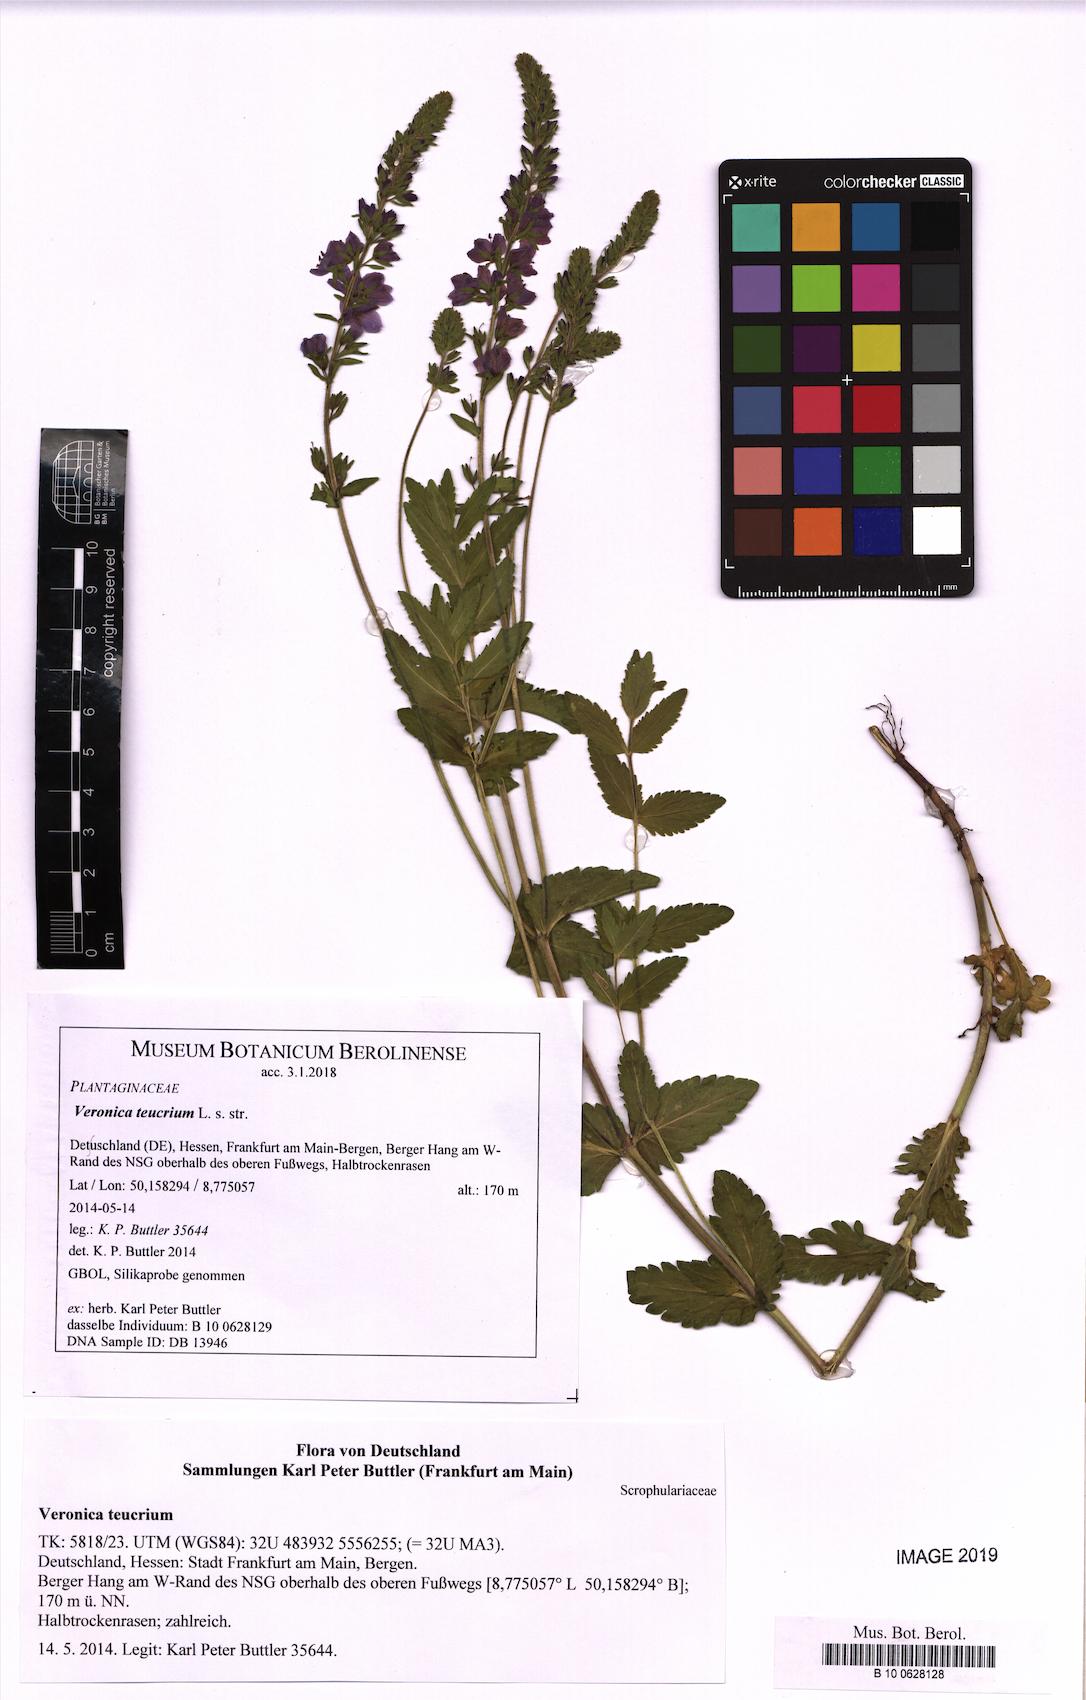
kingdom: Plantae
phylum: Tracheophyta
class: Magnoliopsida
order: Lamiales
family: Plantaginaceae
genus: Veronica
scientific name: Veronica teucrium
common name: Large speedwell
